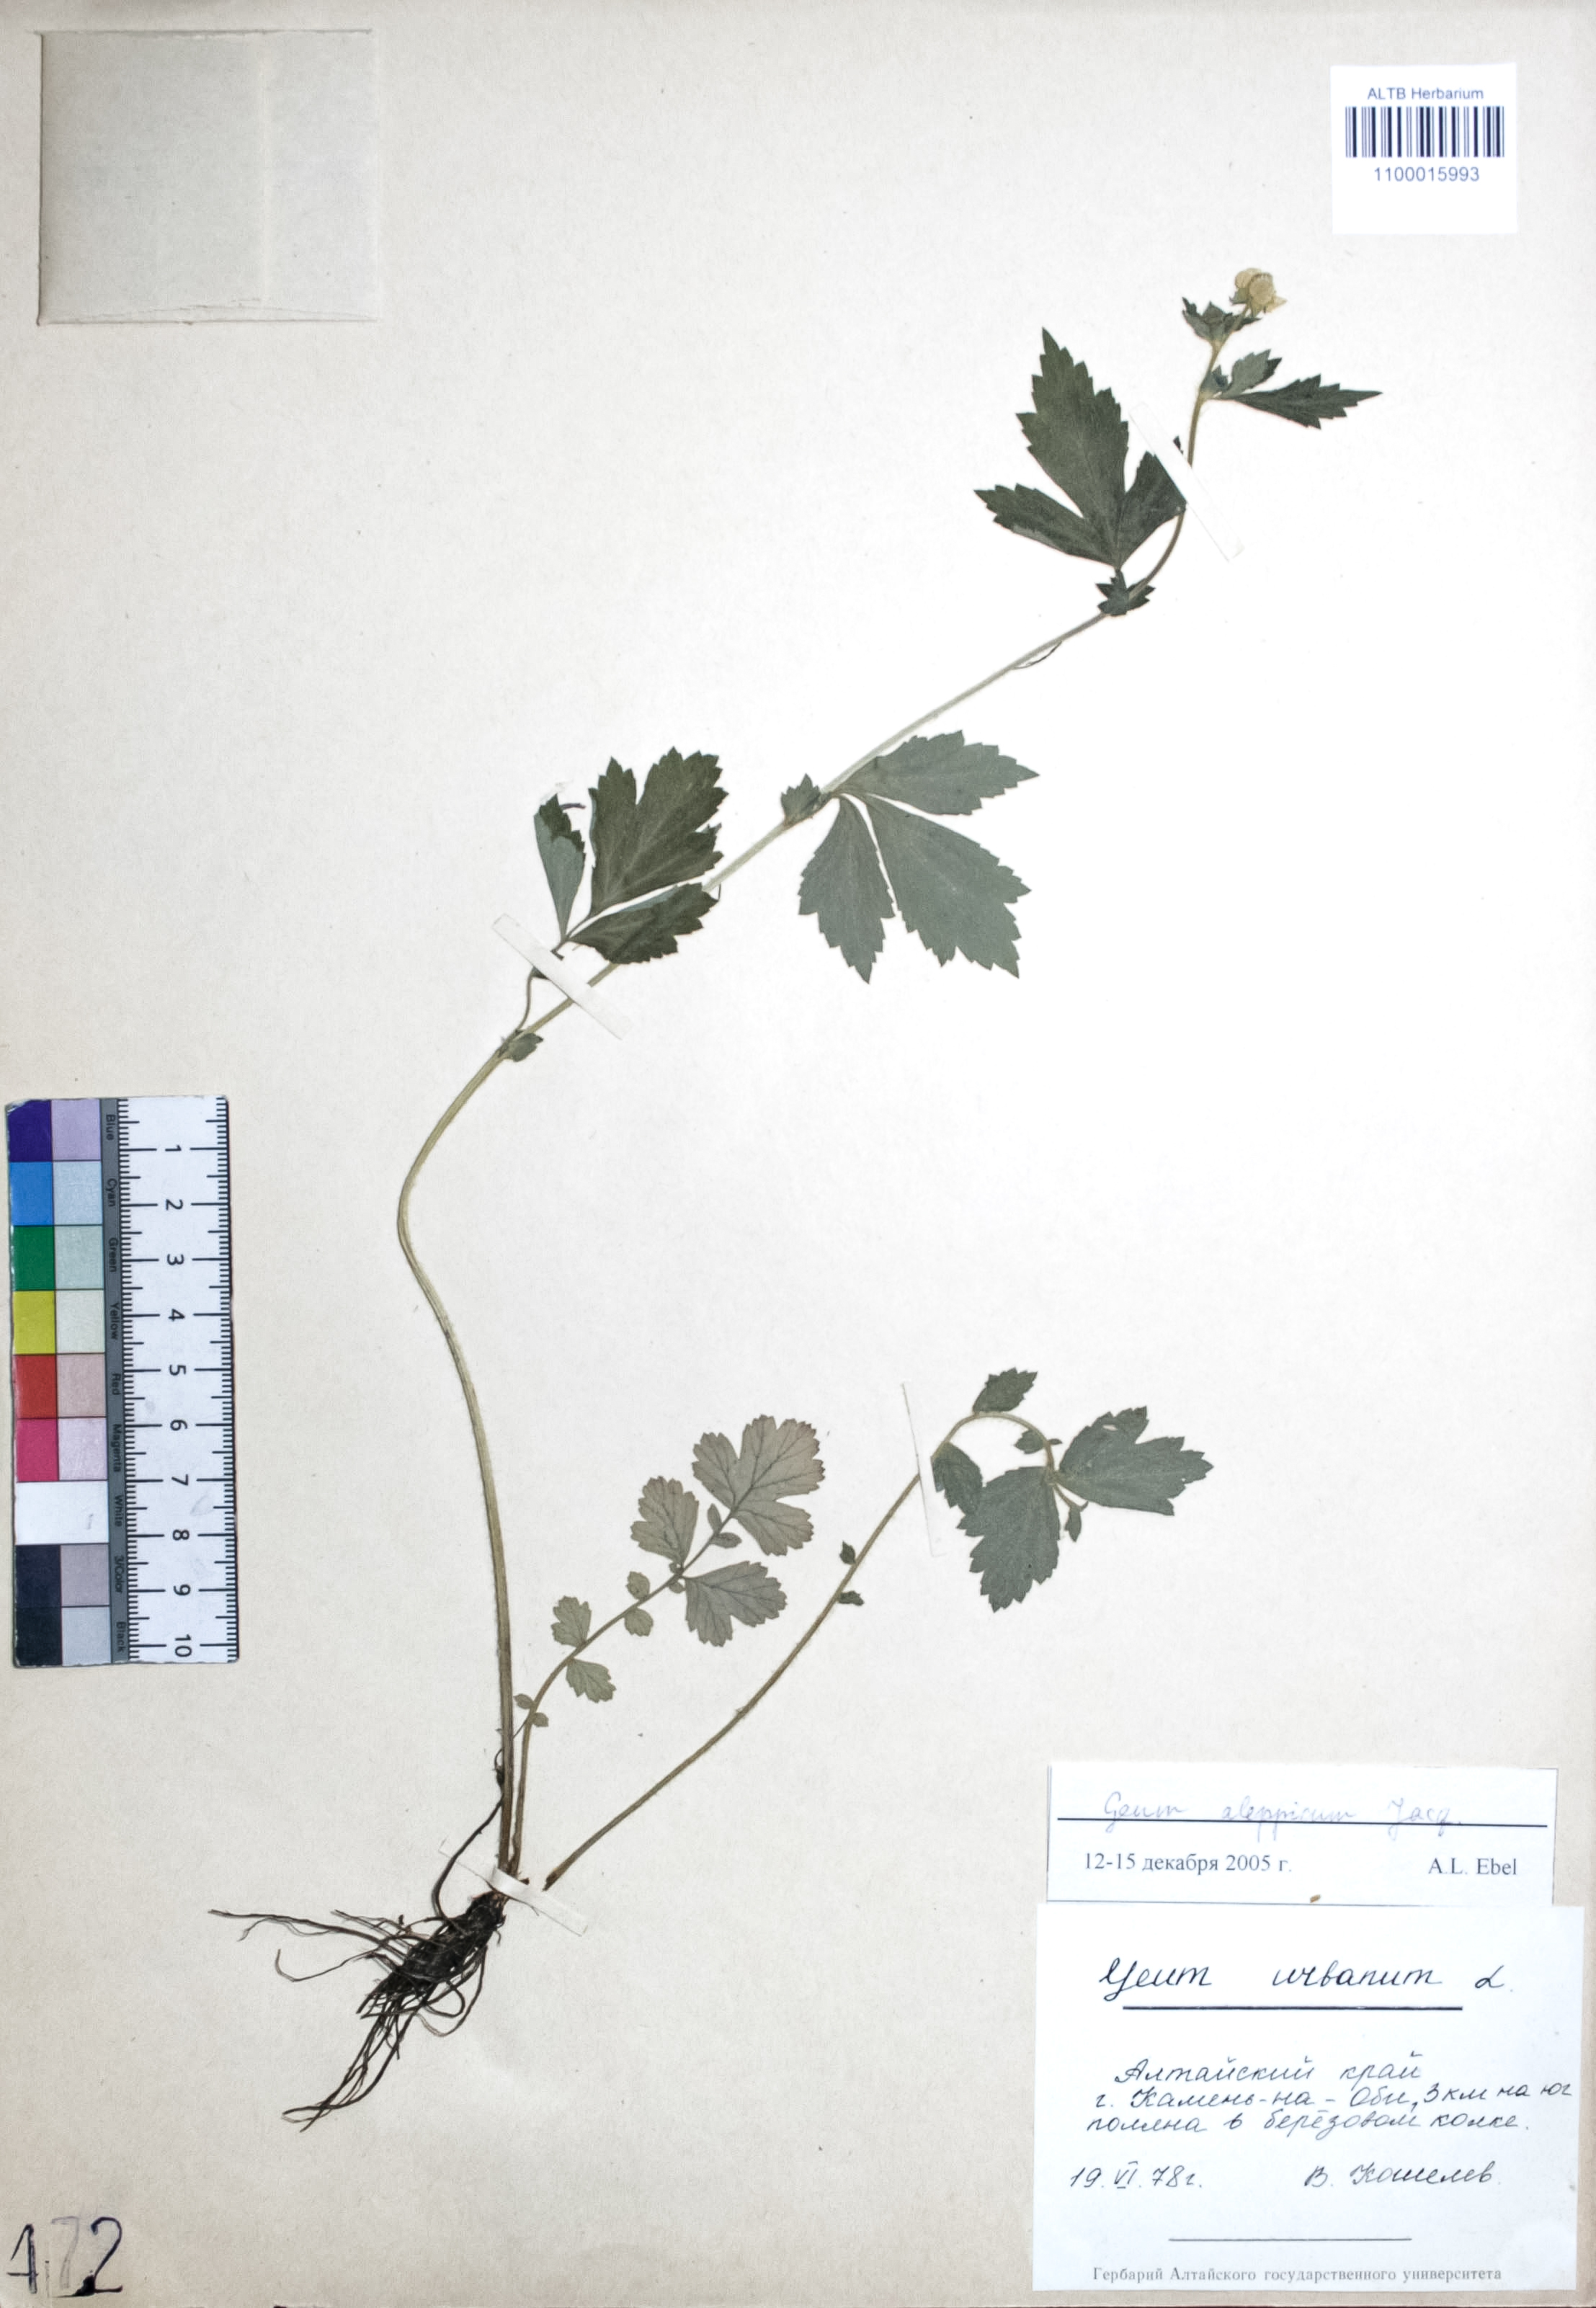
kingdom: Plantae
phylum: Tracheophyta
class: Magnoliopsida
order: Rosales
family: Rosaceae
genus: Geum
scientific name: Geum aleppicum
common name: Yellow avens
